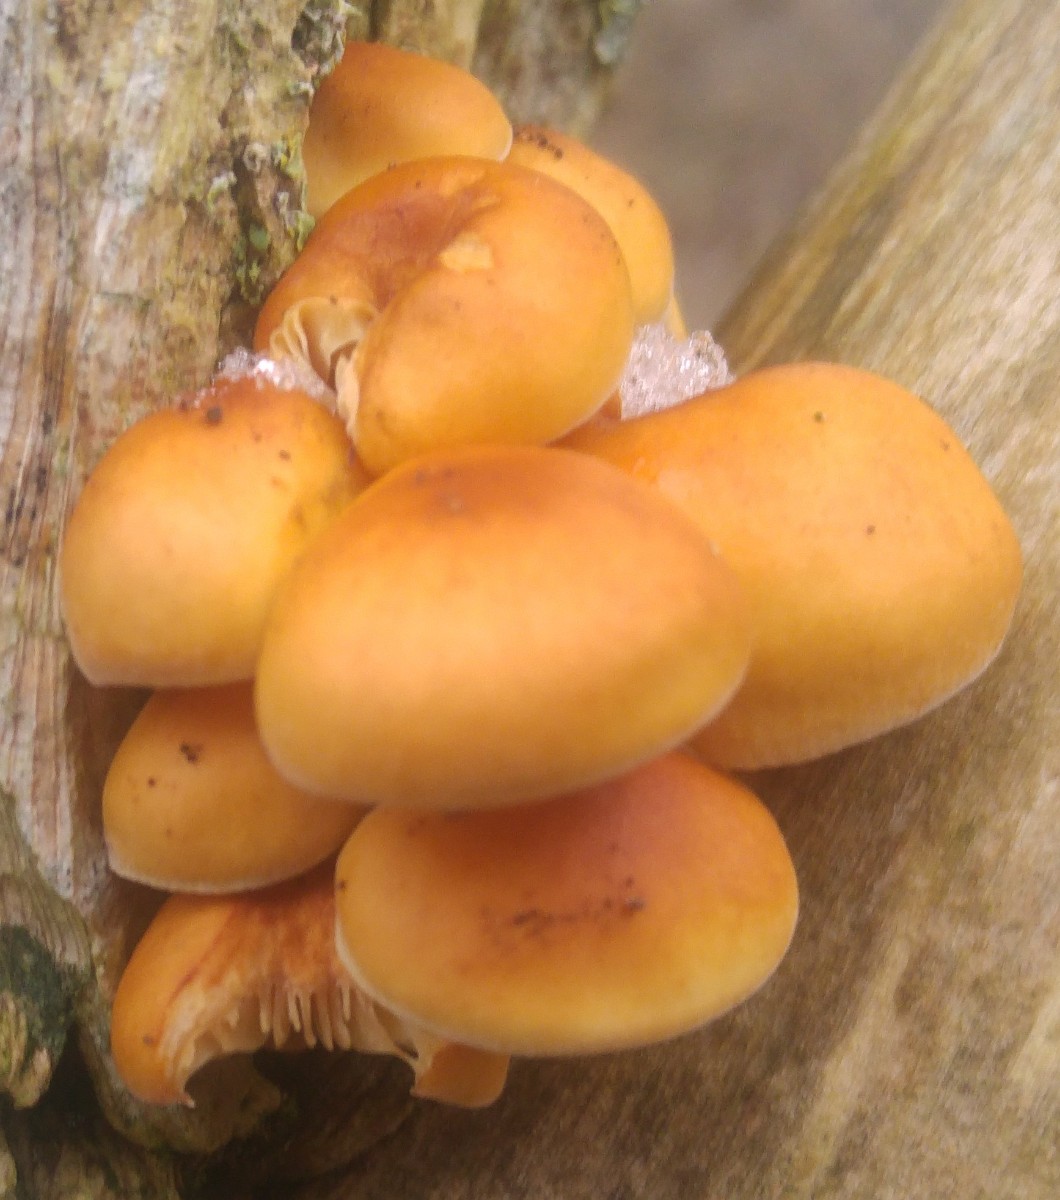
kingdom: Fungi
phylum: Basidiomycota
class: Agaricomycetes
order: Agaricales
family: Physalacriaceae
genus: Flammulina
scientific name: Flammulina velutipes
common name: gul fløjlsfod
